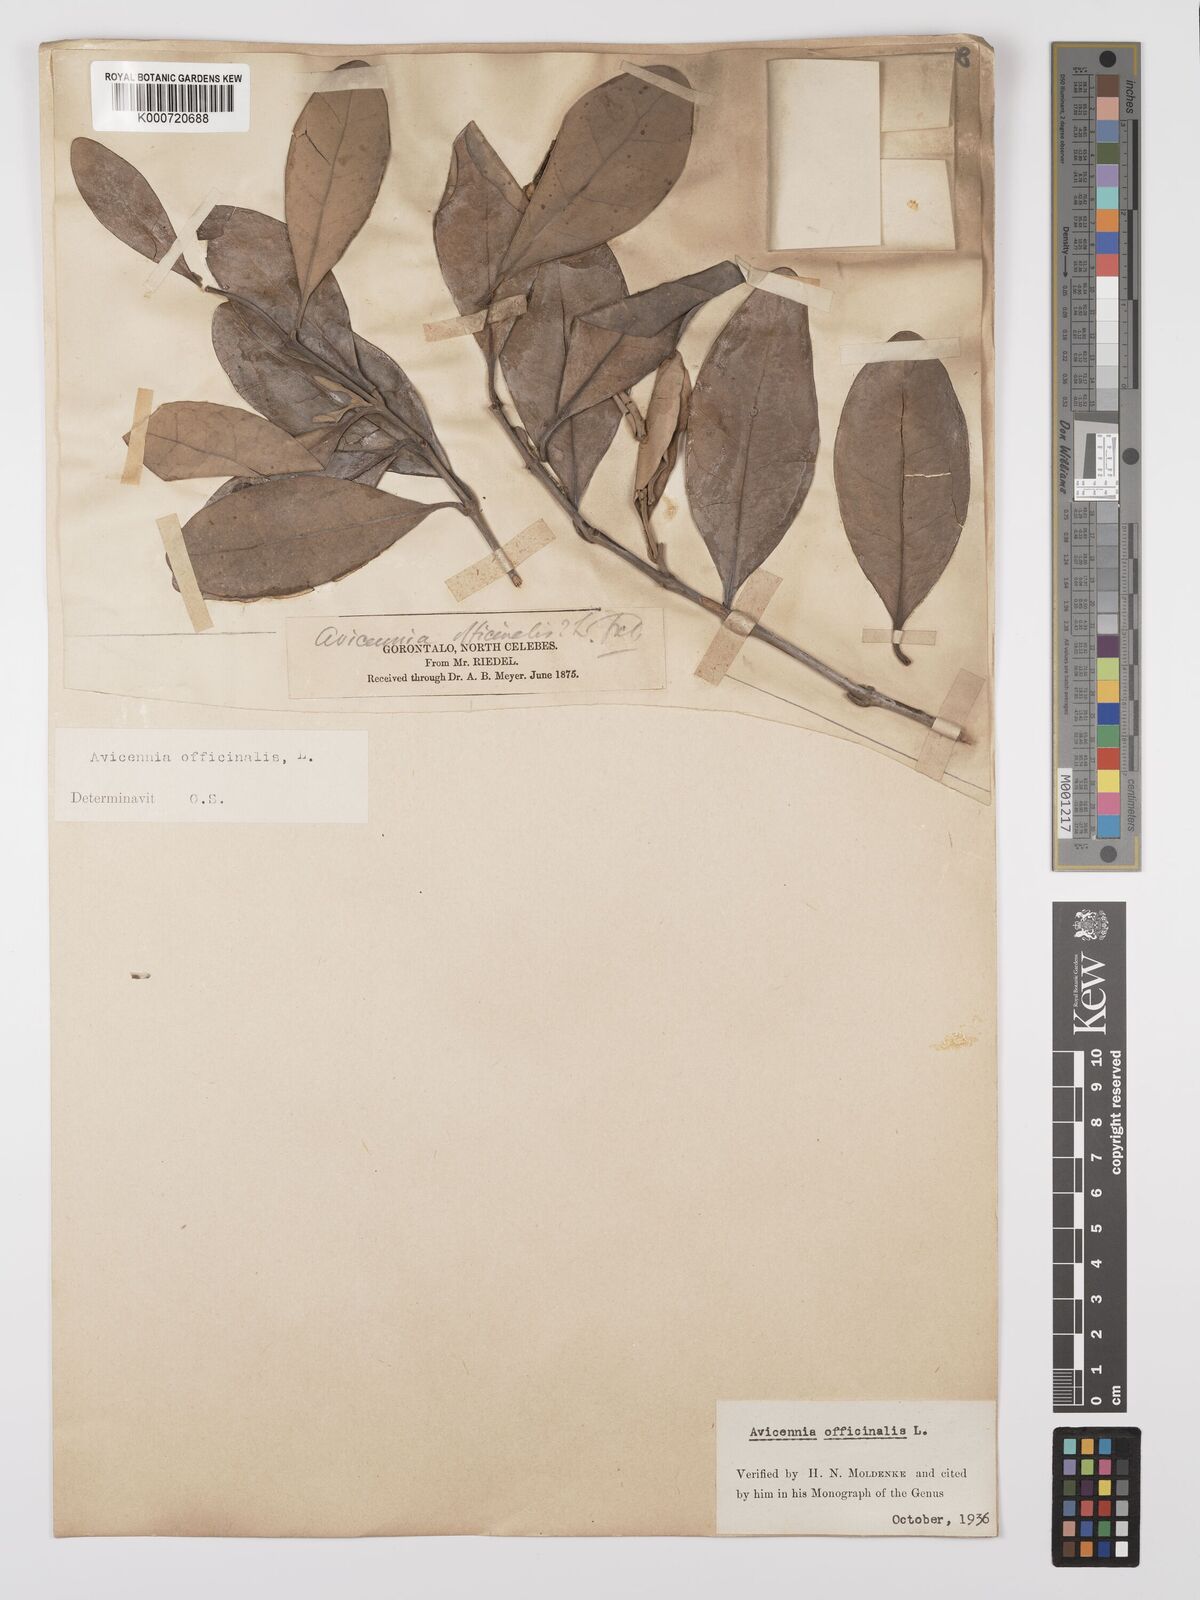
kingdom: Plantae
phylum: Tracheophyta
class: Magnoliopsida
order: Lamiales
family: Acanthaceae
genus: Avicennia
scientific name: Avicennia marina
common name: Gray mangrove
